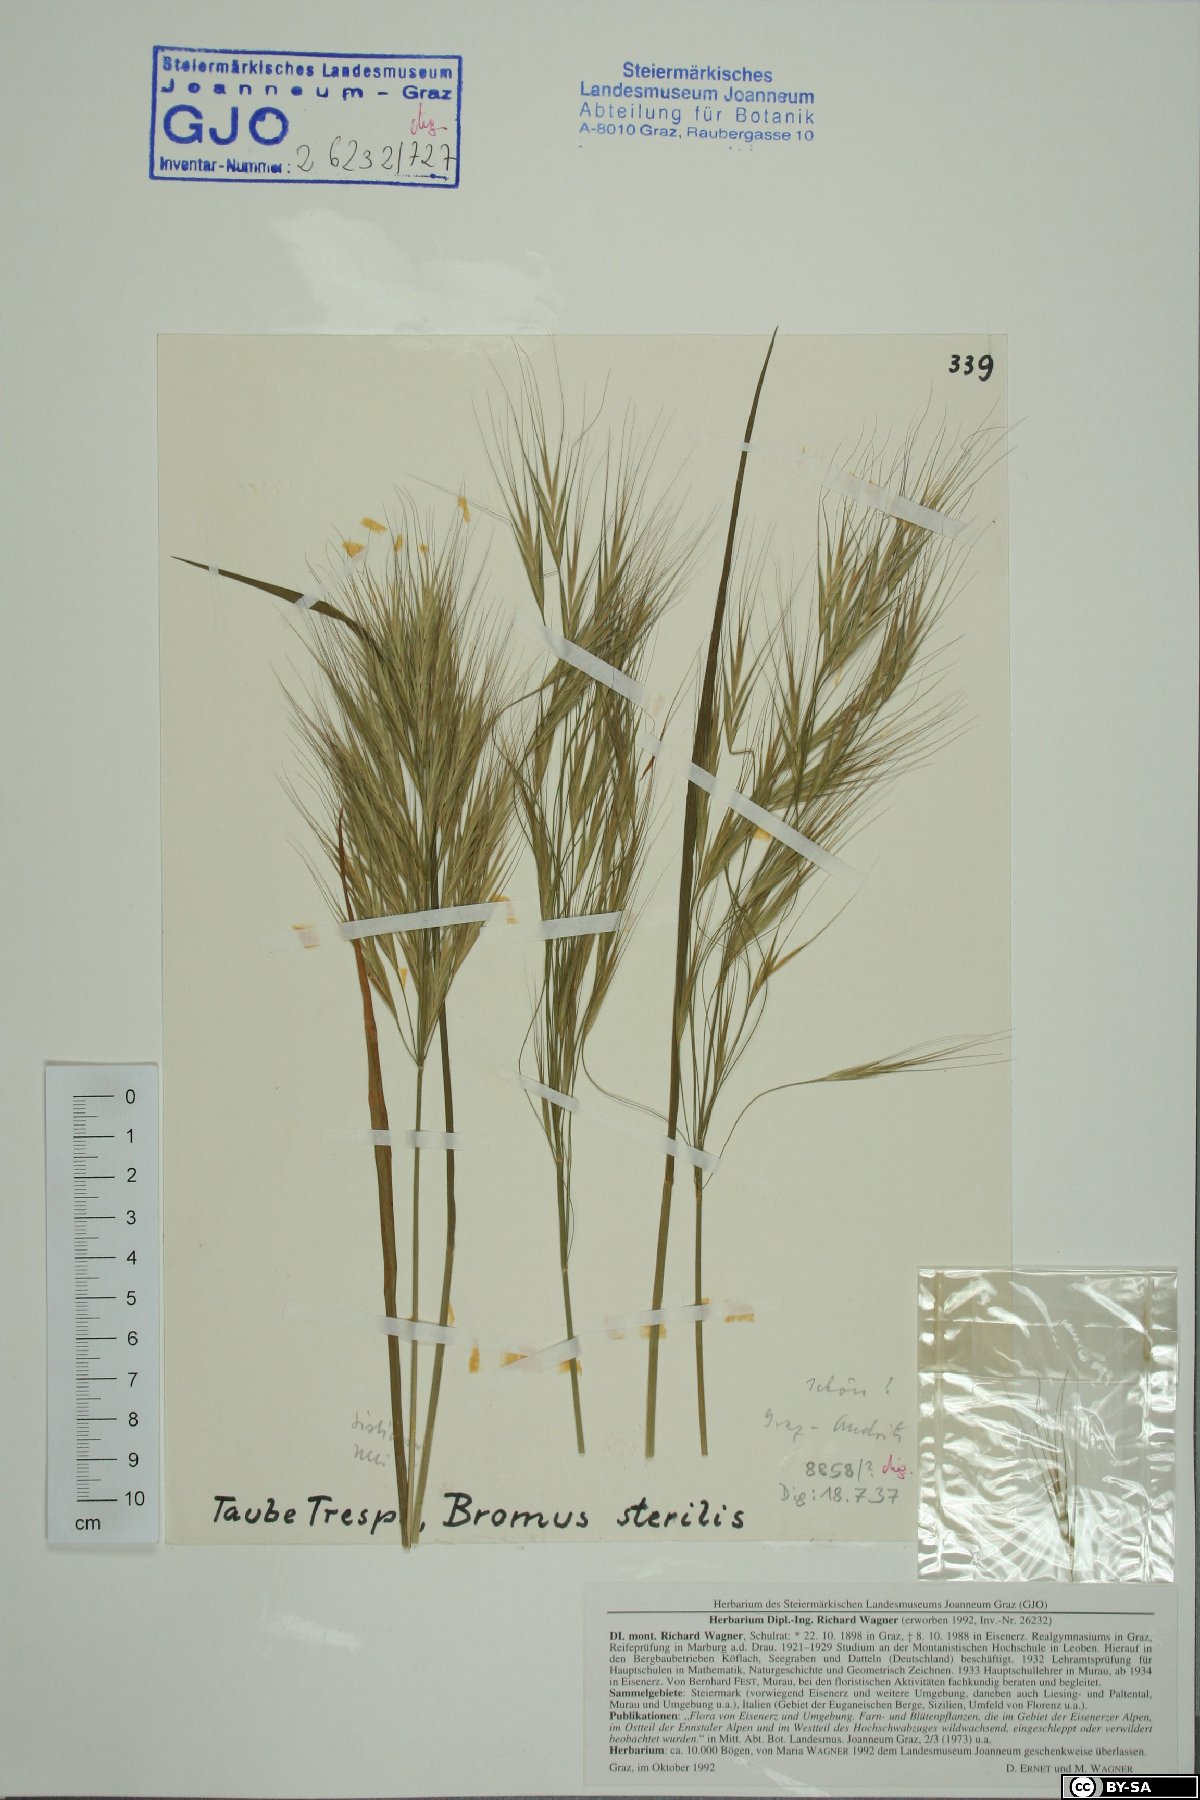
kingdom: Plantae
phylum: Tracheophyta
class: Liliopsida
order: Poales
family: Poaceae
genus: Bromus
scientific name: Bromus sterilis
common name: Poverty brome
